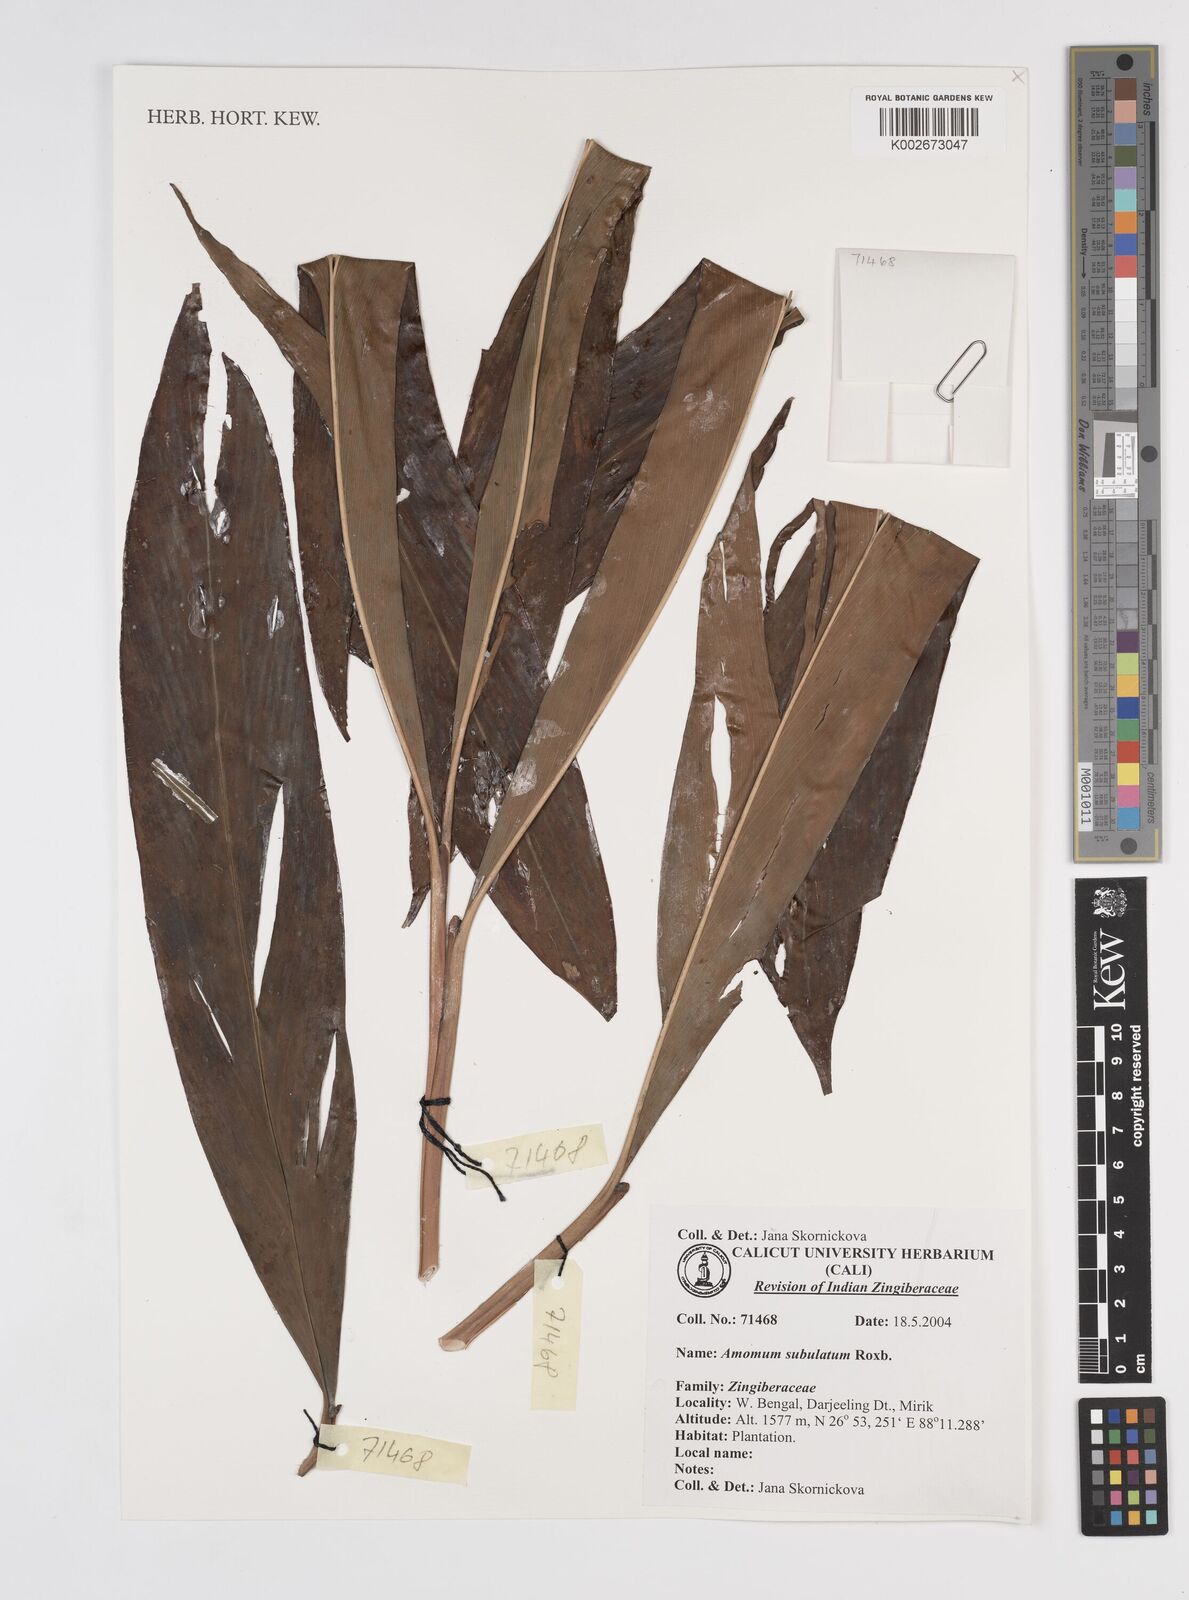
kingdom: Plantae
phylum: Tracheophyta
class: Liliopsida
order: Zingiberales
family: Zingiberaceae
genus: Amomum
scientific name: Amomum subulatum
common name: Black cardamom
